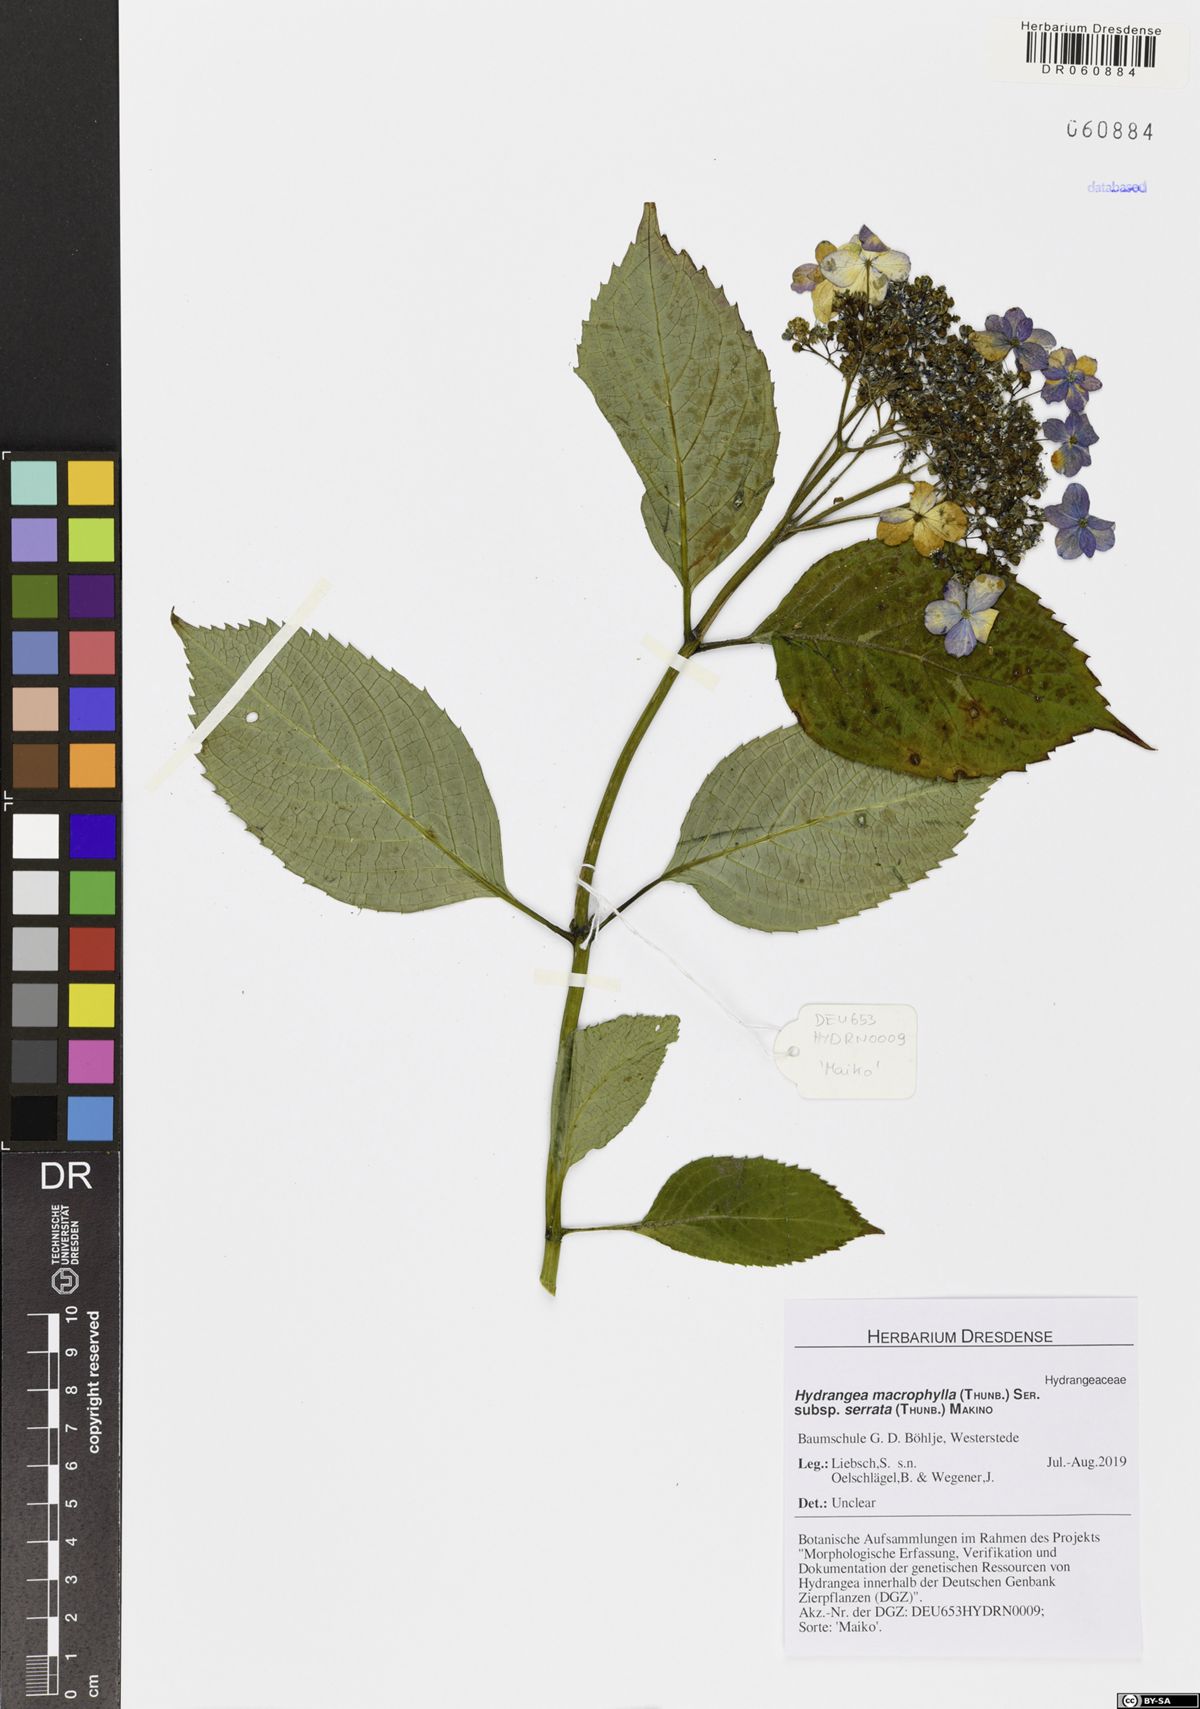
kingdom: Plantae
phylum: Tracheophyta
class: Magnoliopsida
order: Cornales
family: Hydrangeaceae
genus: Hydrangea
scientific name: Hydrangea serrata
